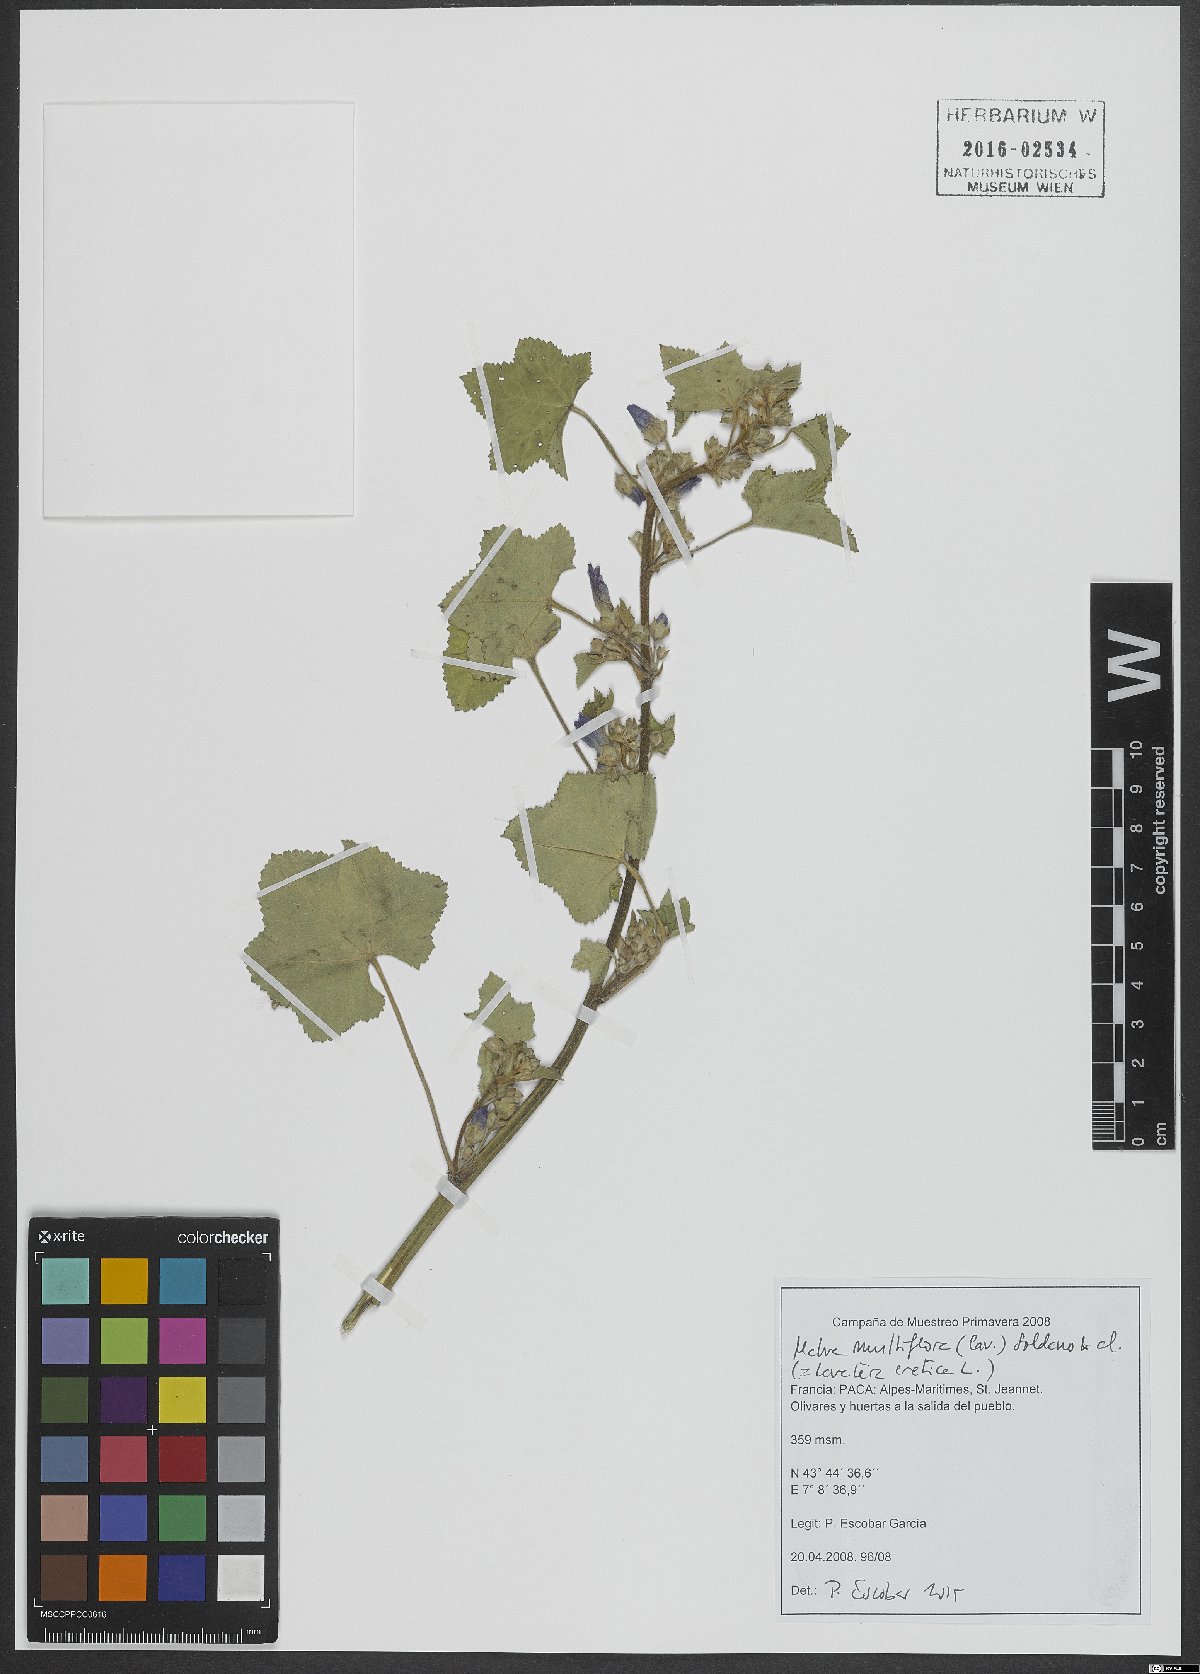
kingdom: Plantae
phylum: Tracheophyta
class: Magnoliopsida
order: Malvales
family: Malvaceae
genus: Malva
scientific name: Malva multiflora
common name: Cheeseweed
